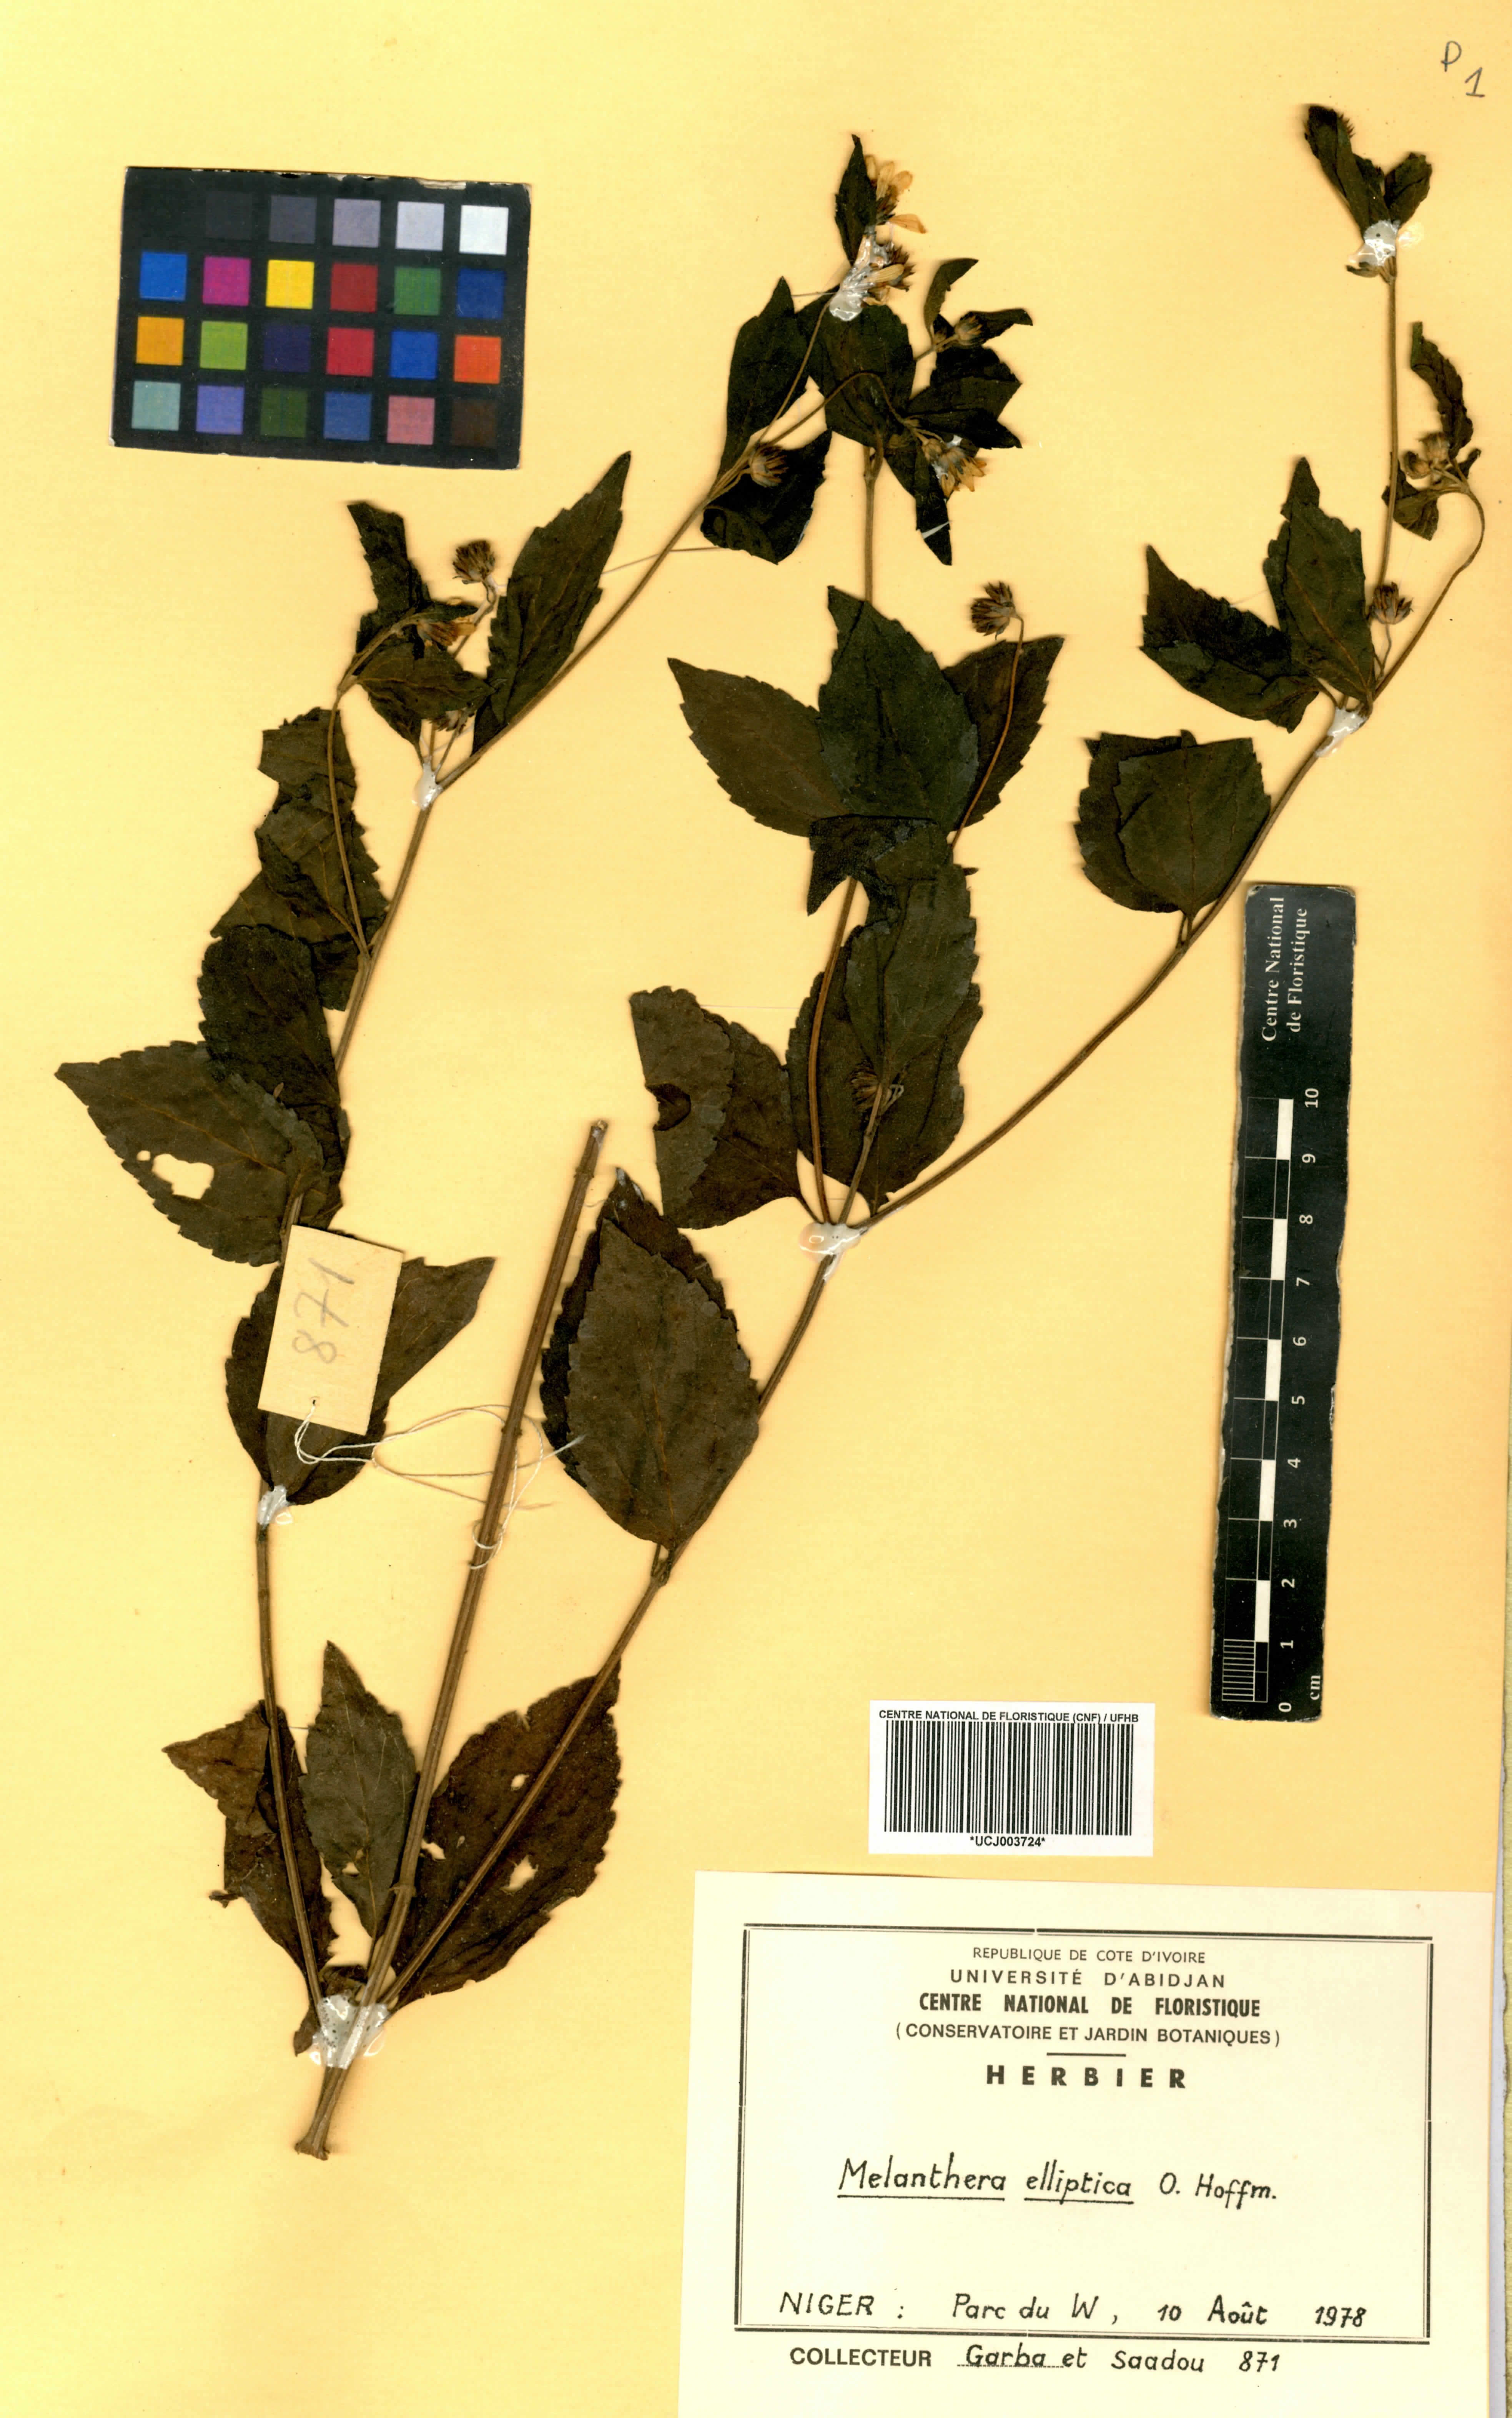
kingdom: Plantae
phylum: Tracheophyta
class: Magnoliopsida
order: Asterales
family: Asteraceae
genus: Lipotriche
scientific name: Lipotriche elliptica
